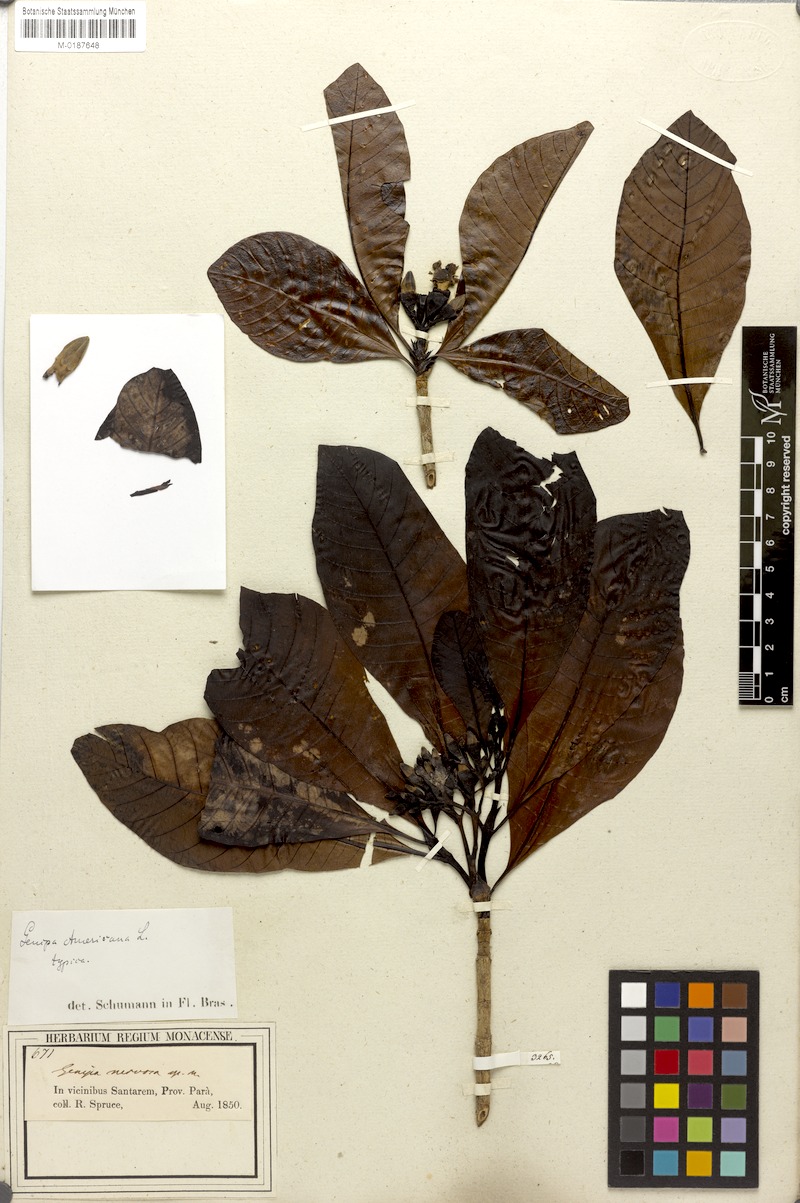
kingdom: Plantae
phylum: Tracheophyta
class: Magnoliopsida
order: Gentianales
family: Rubiaceae
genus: Genipa
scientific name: Genipa americana
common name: Genipap
